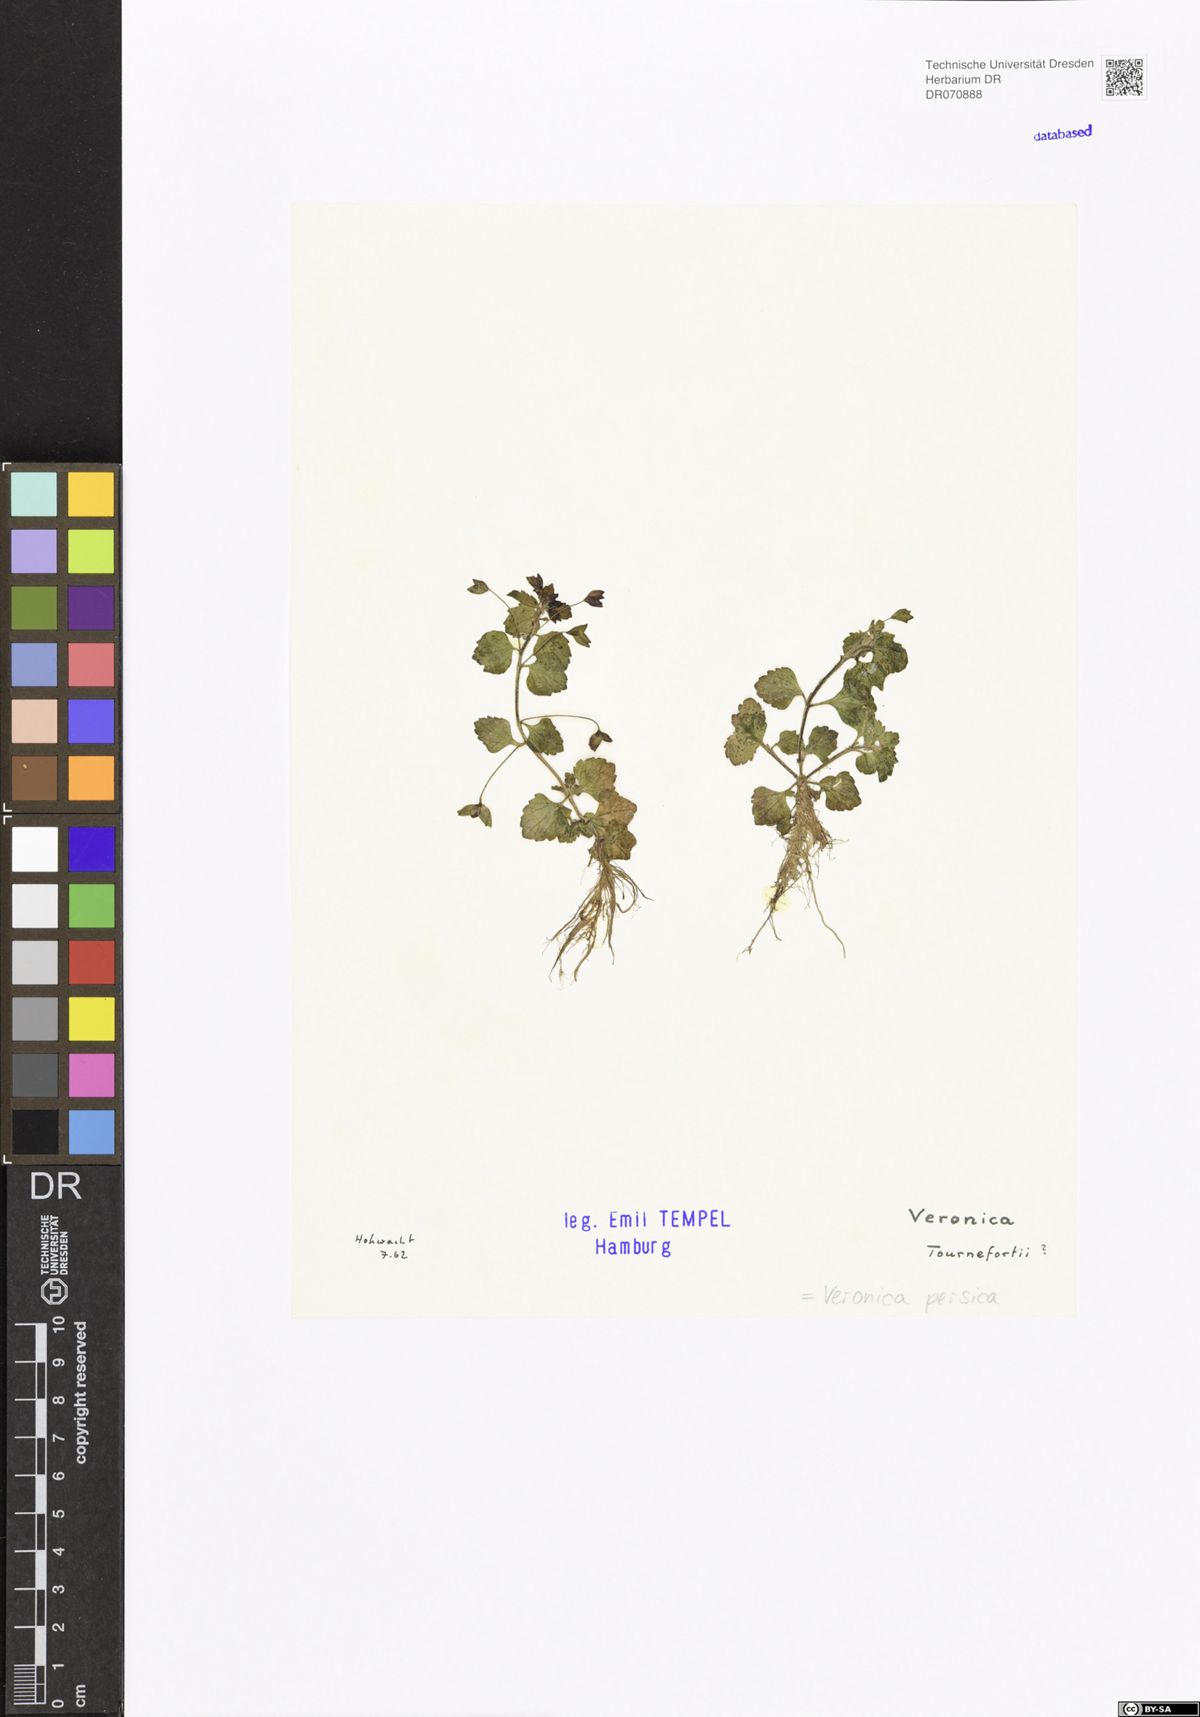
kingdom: Plantae
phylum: Tracheophyta
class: Magnoliopsida
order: Lamiales
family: Plantaginaceae
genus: Veronica
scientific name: Veronica persica
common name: Common field-speedwell
